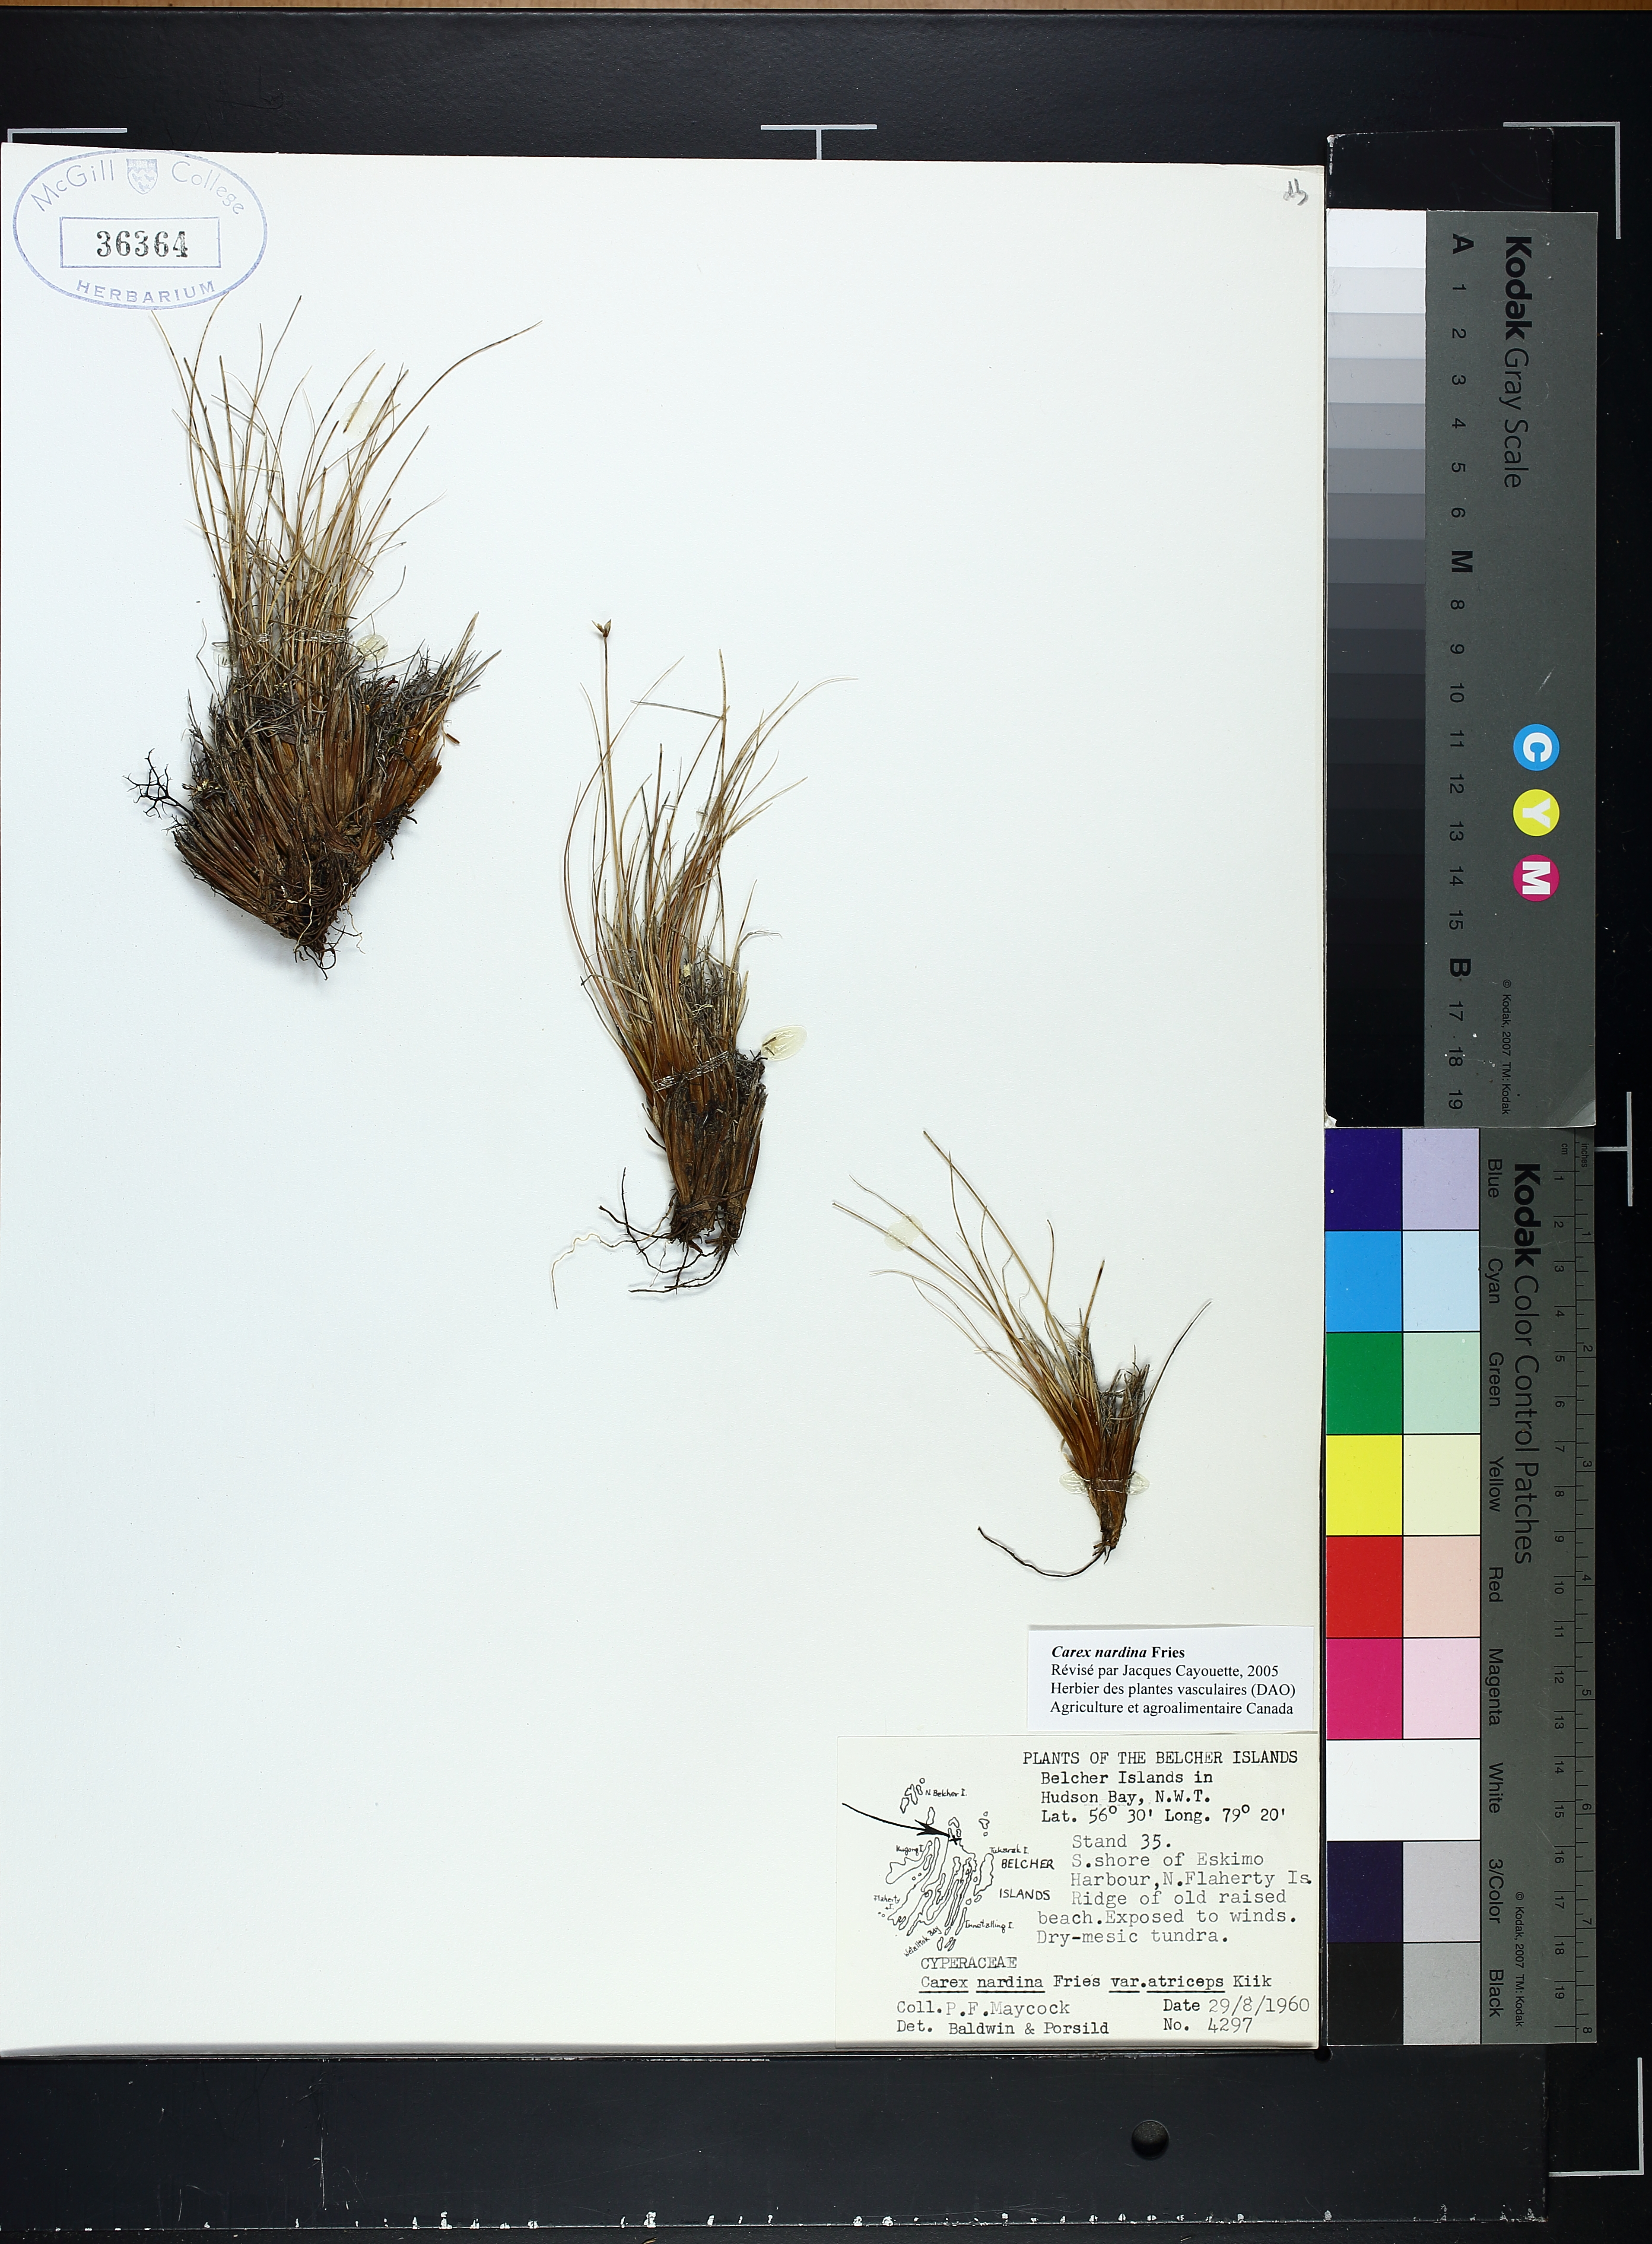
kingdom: Plantae
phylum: Tracheophyta
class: Liliopsida
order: Poales
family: Cyperaceae
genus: Carex
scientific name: Carex nardina
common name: Nard sedge
